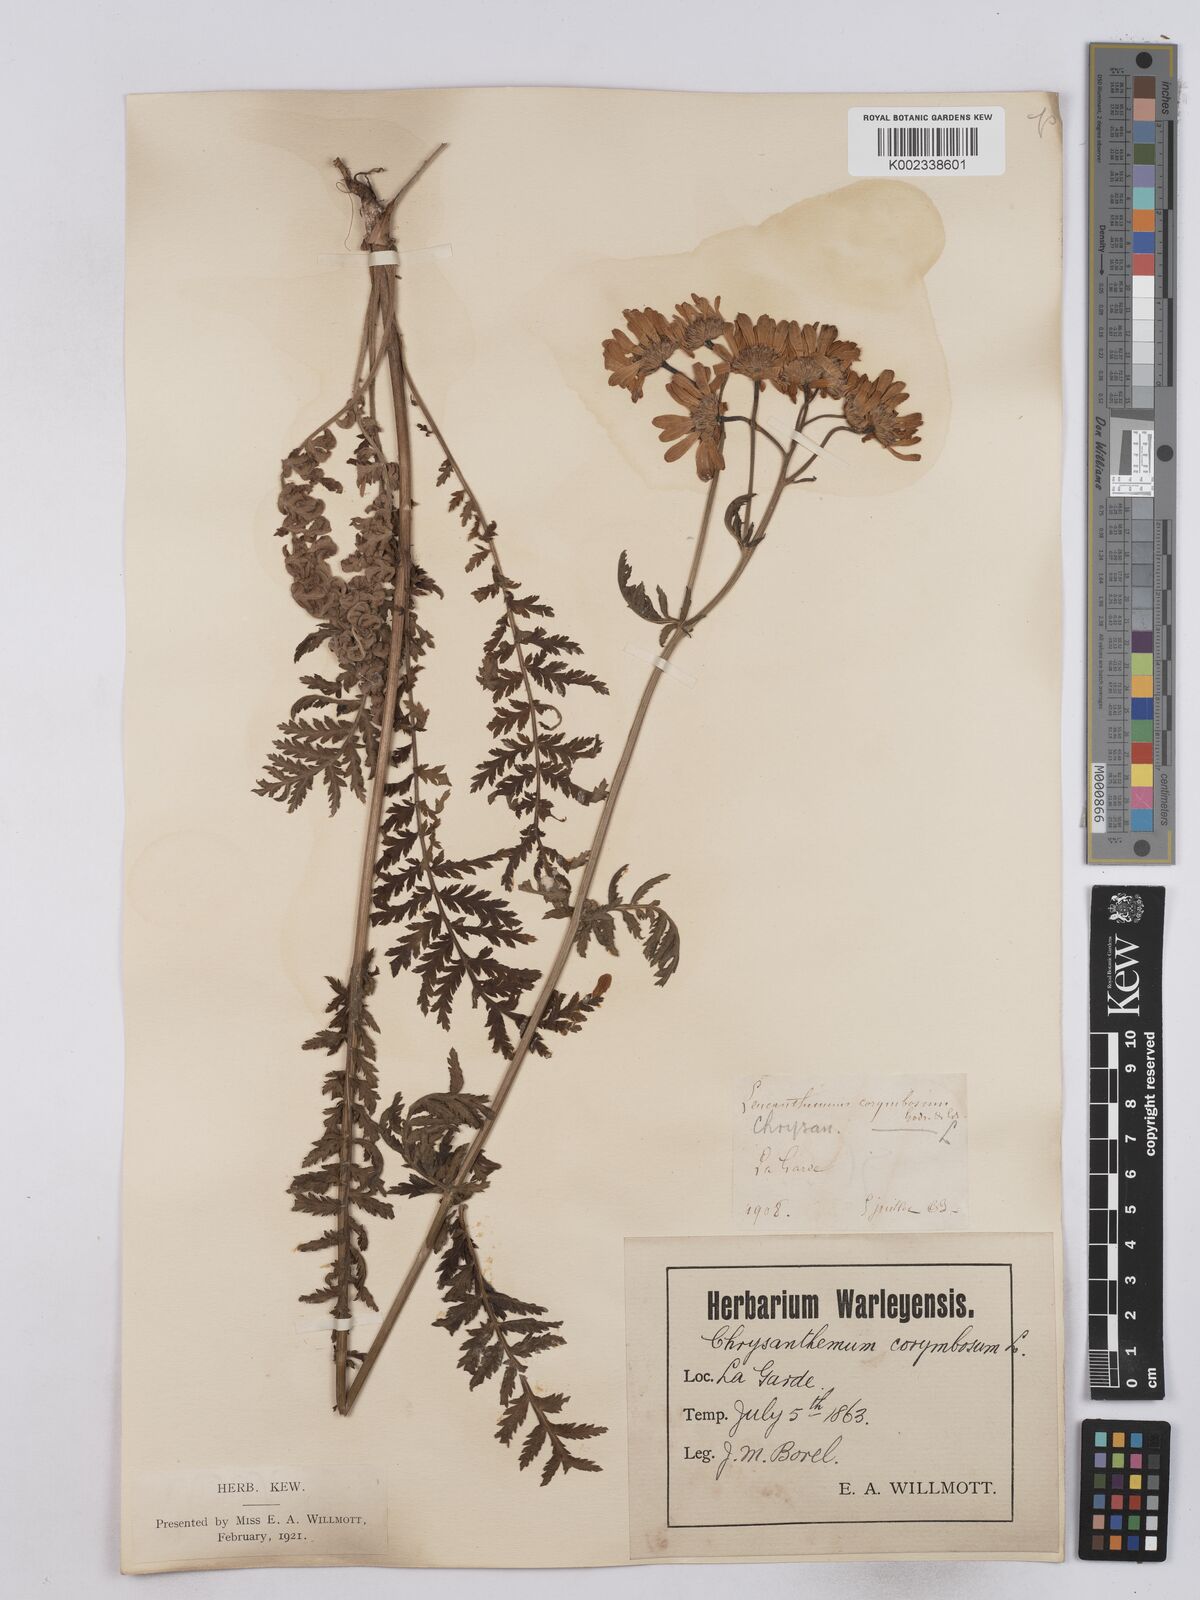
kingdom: Plantae
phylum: Tracheophyta
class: Magnoliopsida
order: Asterales
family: Asteraceae
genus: Tanacetum
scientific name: Tanacetum corymbosum
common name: Scentless feverfew
